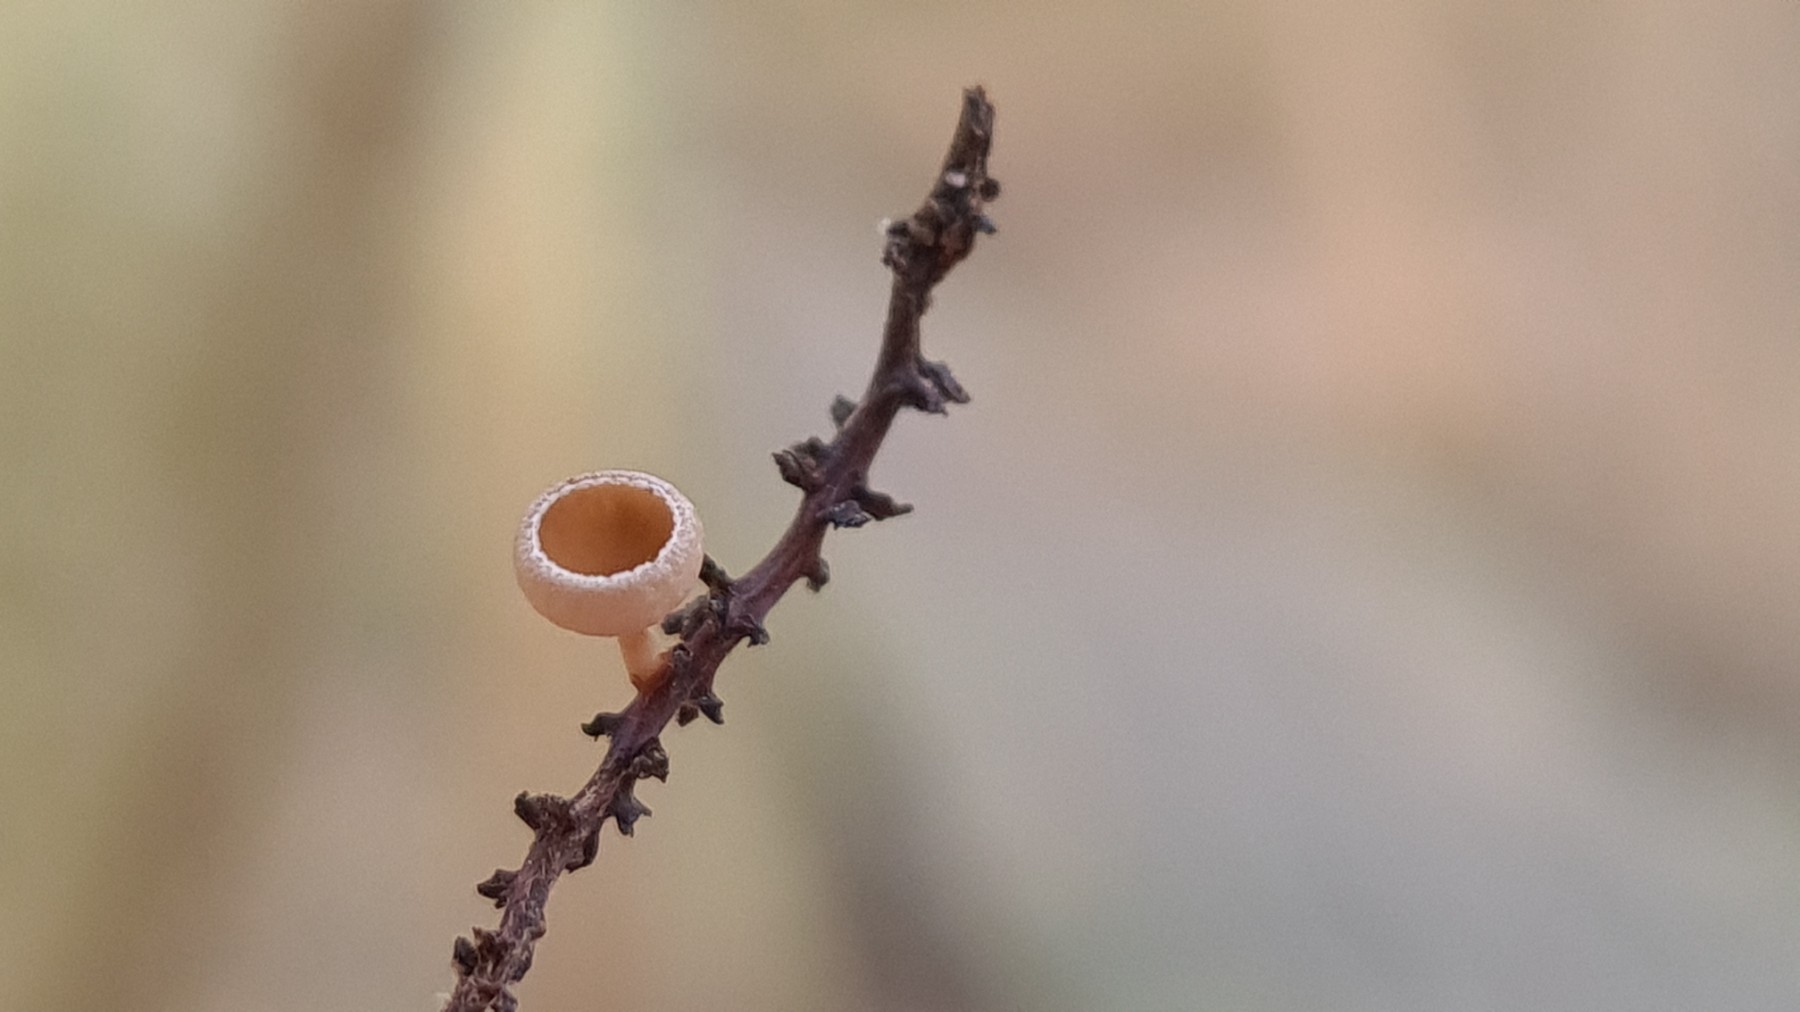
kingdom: Fungi
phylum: Ascomycota
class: Leotiomycetes
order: Helotiales
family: Sclerotiniaceae
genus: Ciboria
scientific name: Ciboria amentacea
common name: ellerakle-knoldskive
